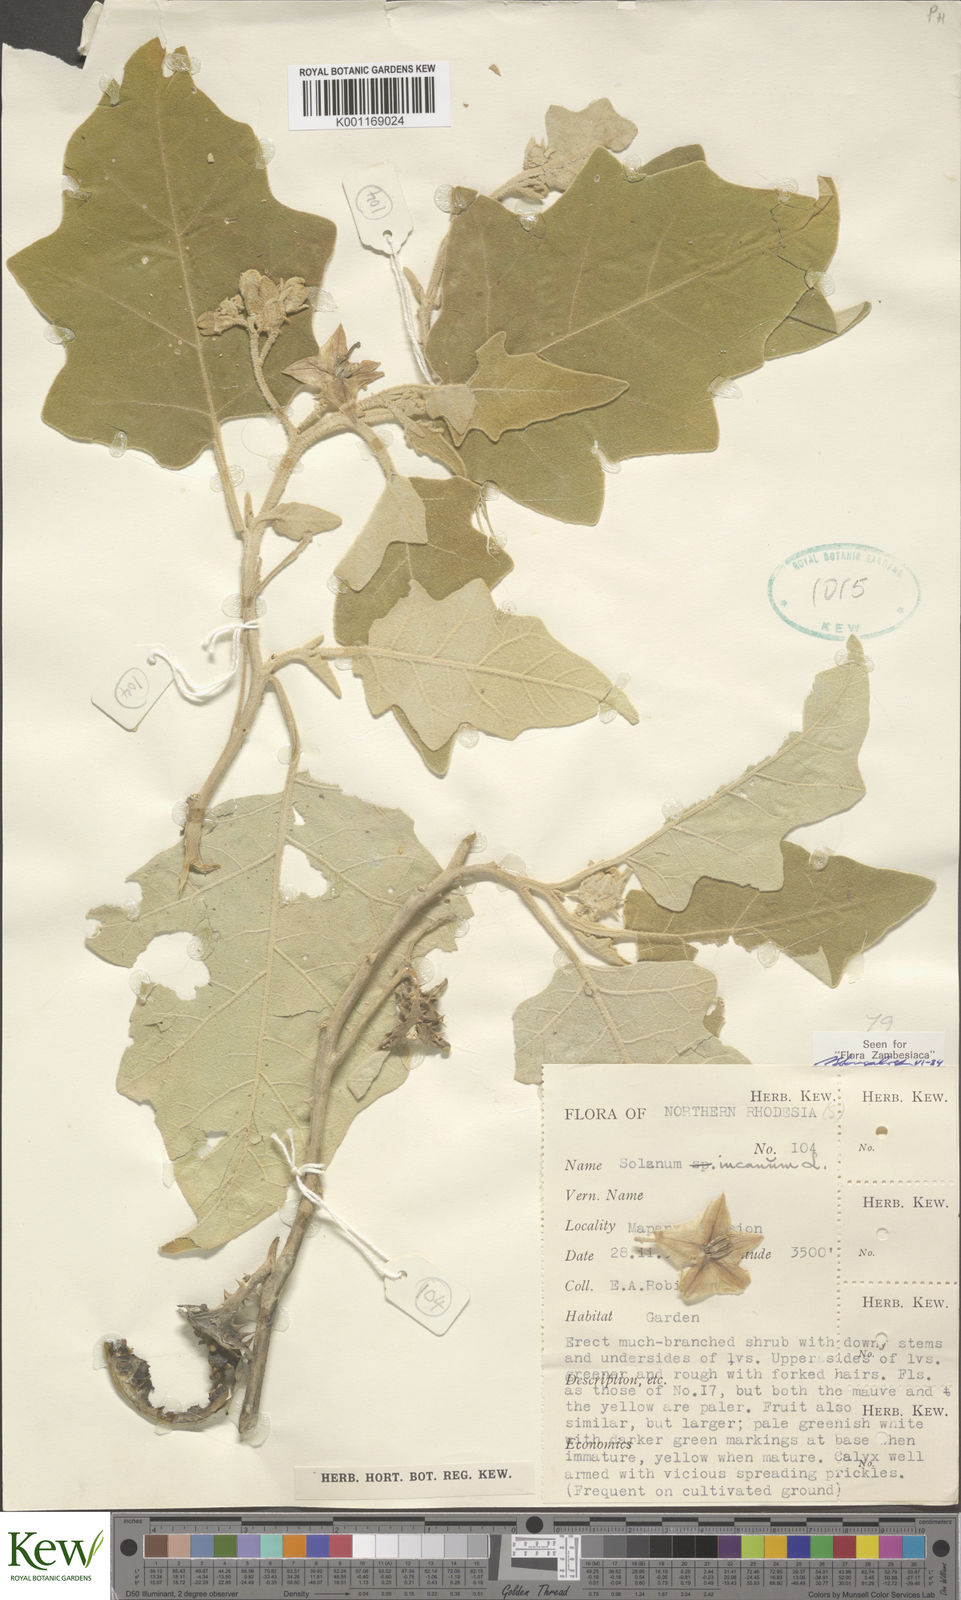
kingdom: Plantae
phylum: Tracheophyta
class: Magnoliopsida
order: Solanales
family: Solanaceae
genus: Solanum
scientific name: Solanum incanum
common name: Bitter apple
